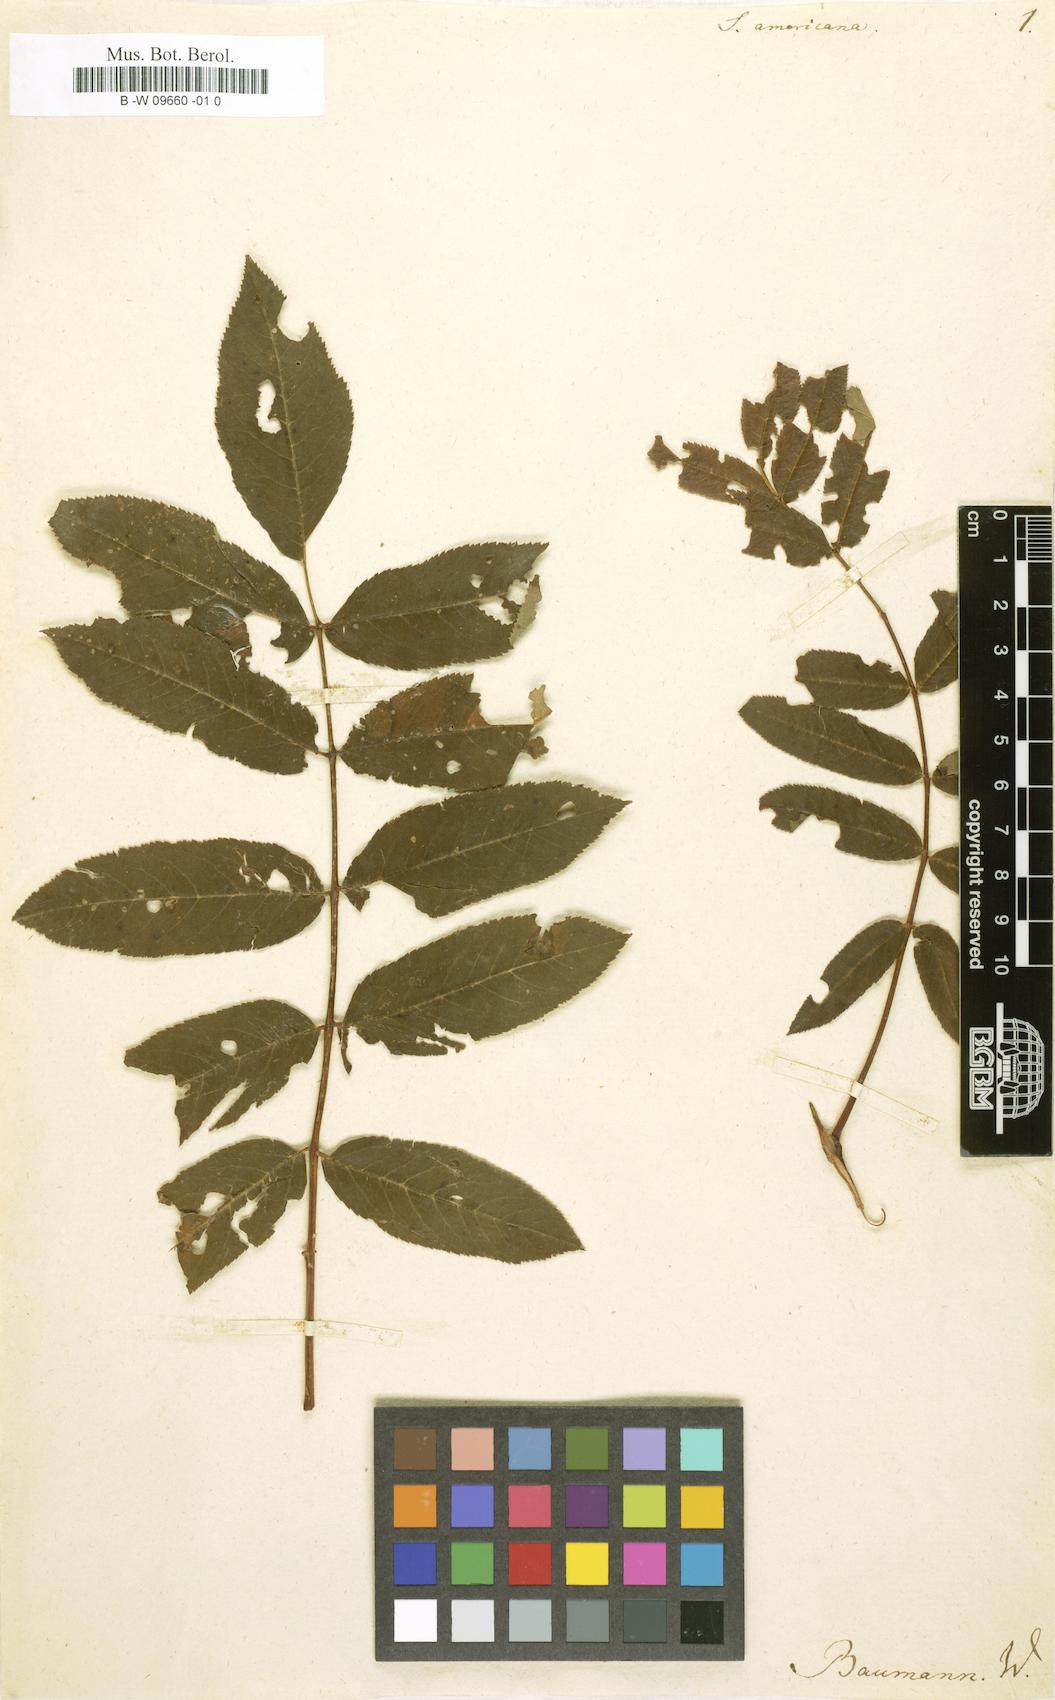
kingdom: Plantae
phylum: Tracheophyta
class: Magnoliopsida
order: Rosales
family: Rosaceae
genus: Sorbus
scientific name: Sorbus americana
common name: American mountain-ash
